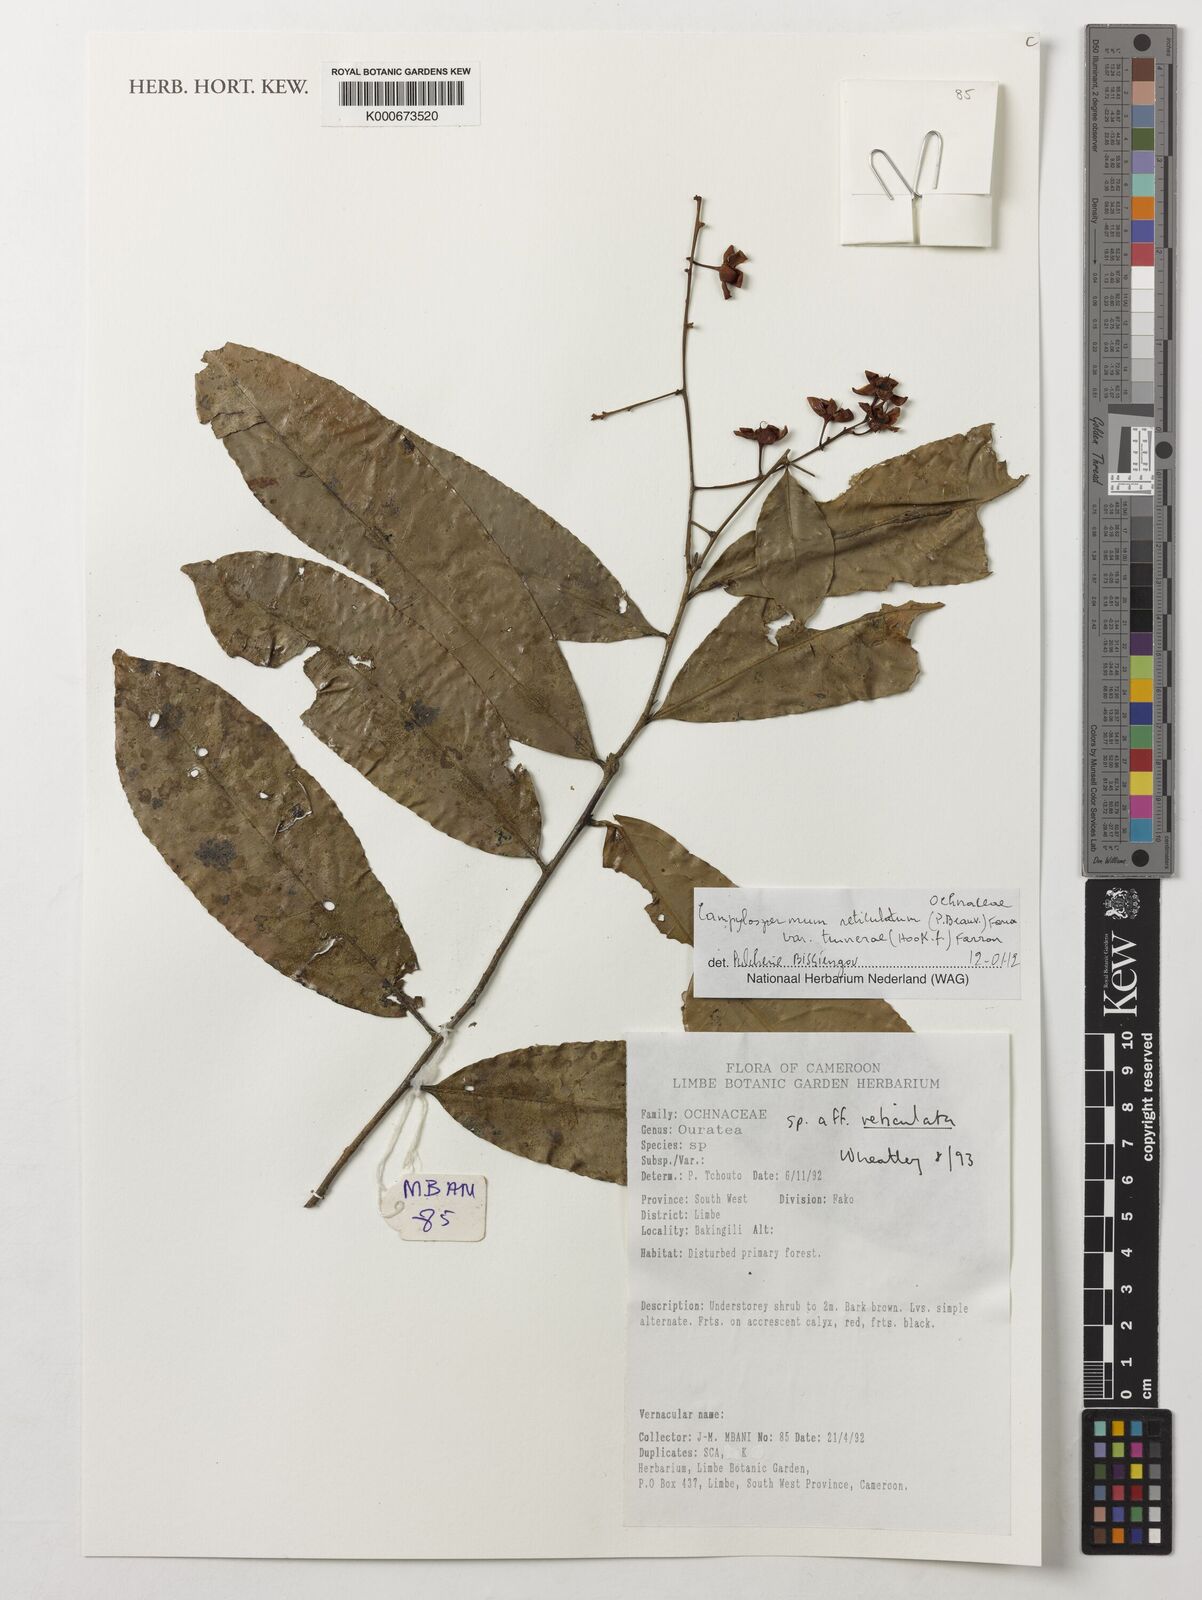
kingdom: Plantae
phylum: Tracheophyta
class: Magnoliopsida
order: Malpighiales
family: Ochnaceae
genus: Campylospermum
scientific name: Campylospermum reticulatum
